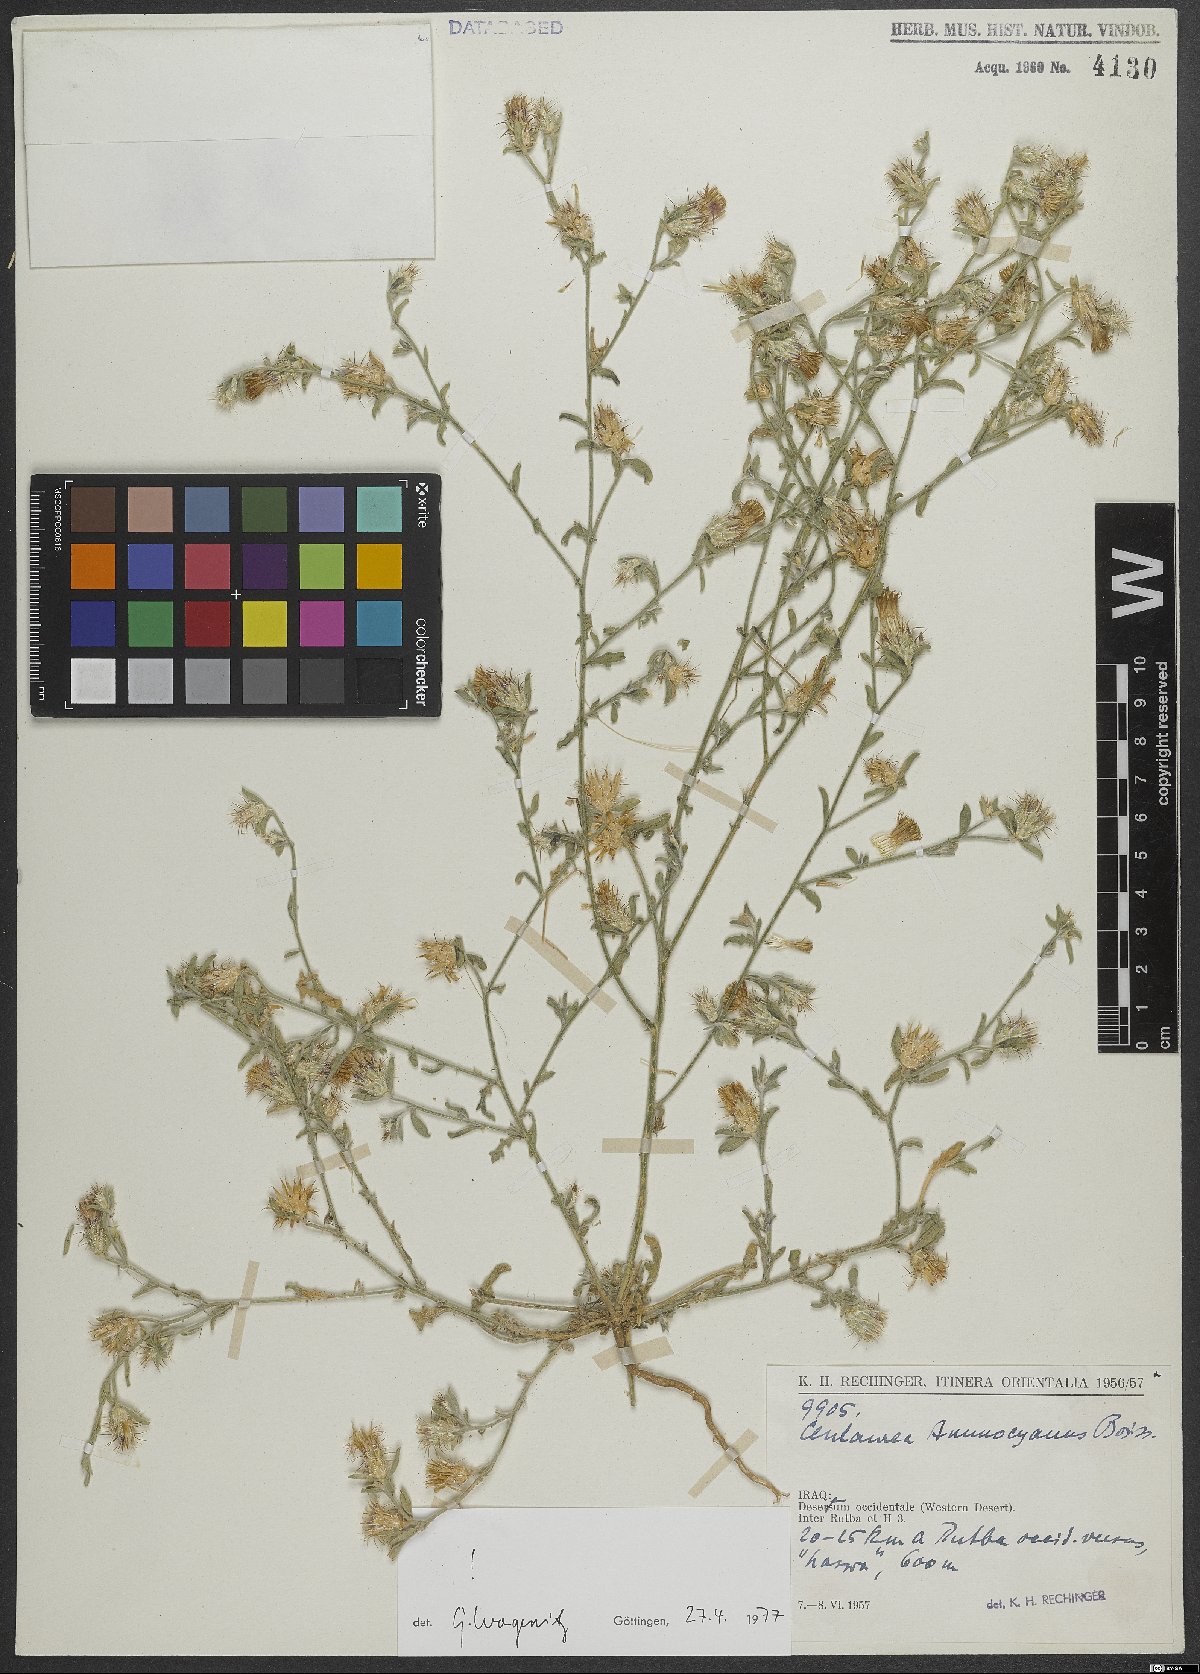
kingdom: Plantae
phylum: Tracheophyta
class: Magnoliopsida
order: Asterales
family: Asteraceae
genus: Centaurea
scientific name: Centaurea ammocyanus
